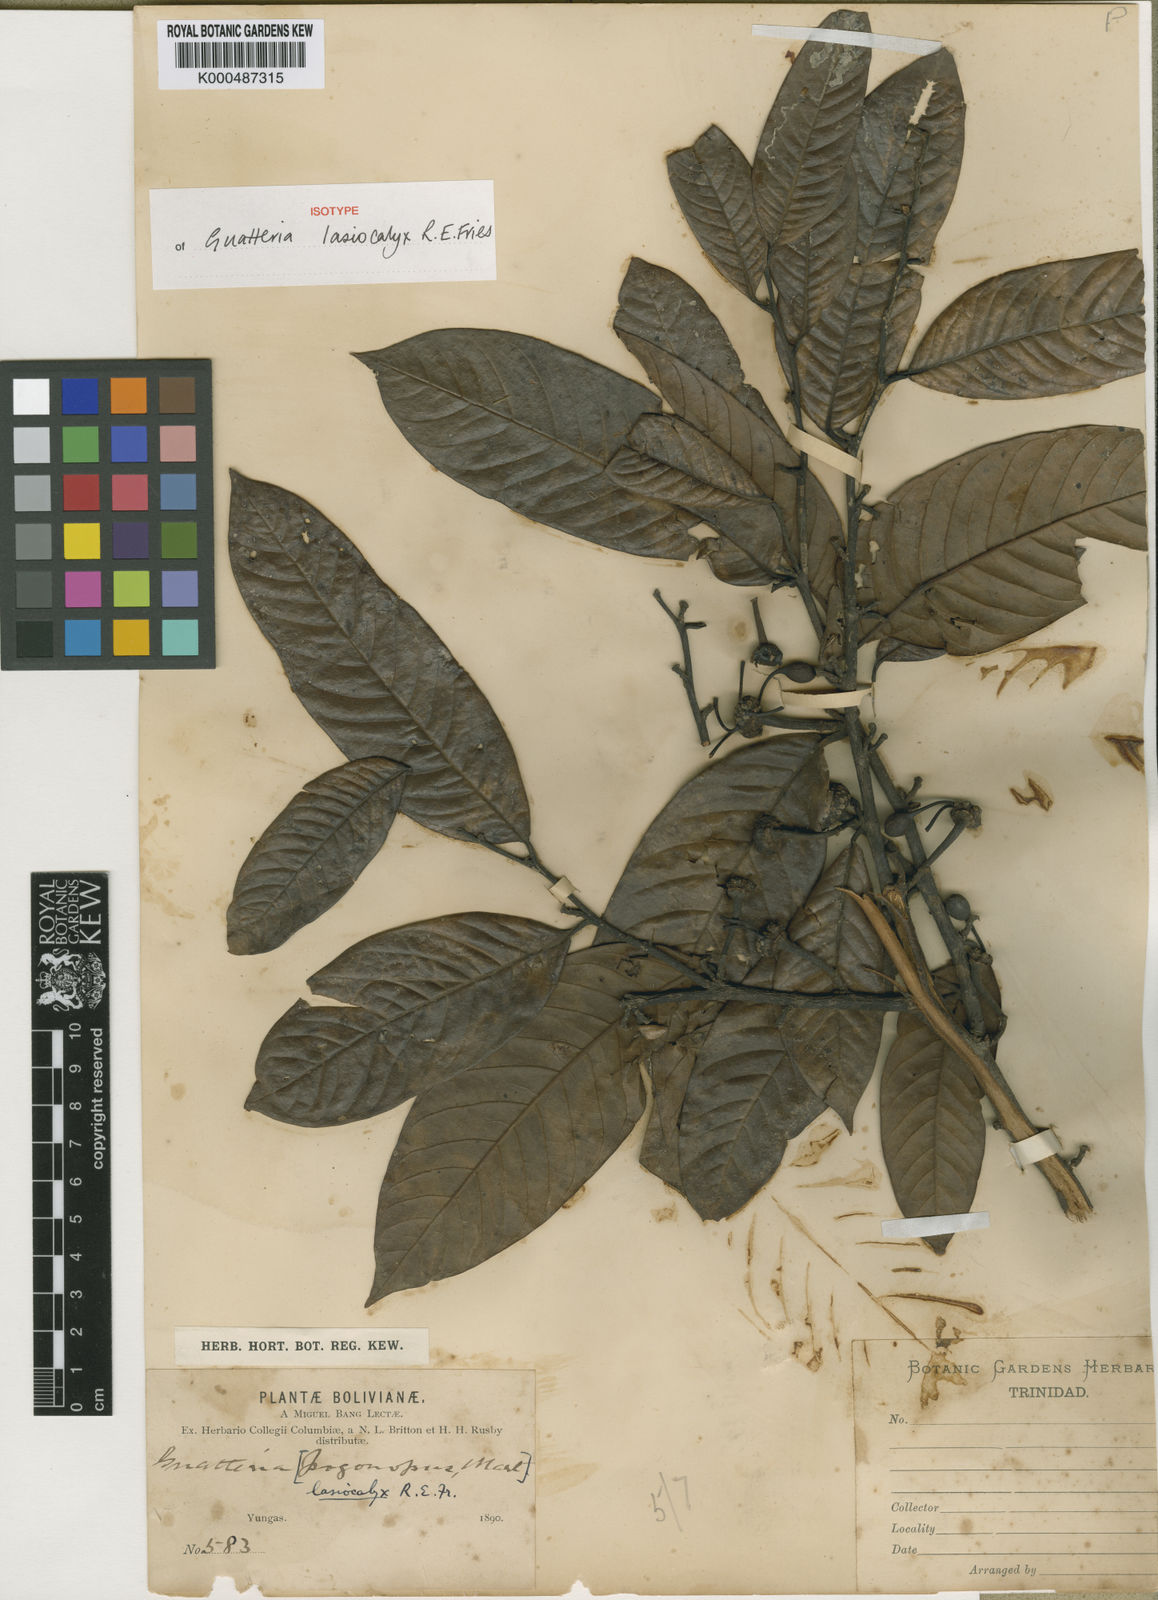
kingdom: Plantae
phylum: Tracheophyta
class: Magnoliopsida
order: Magnoliales
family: Annonaceae
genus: Guatteria
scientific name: Guatteria glauca
